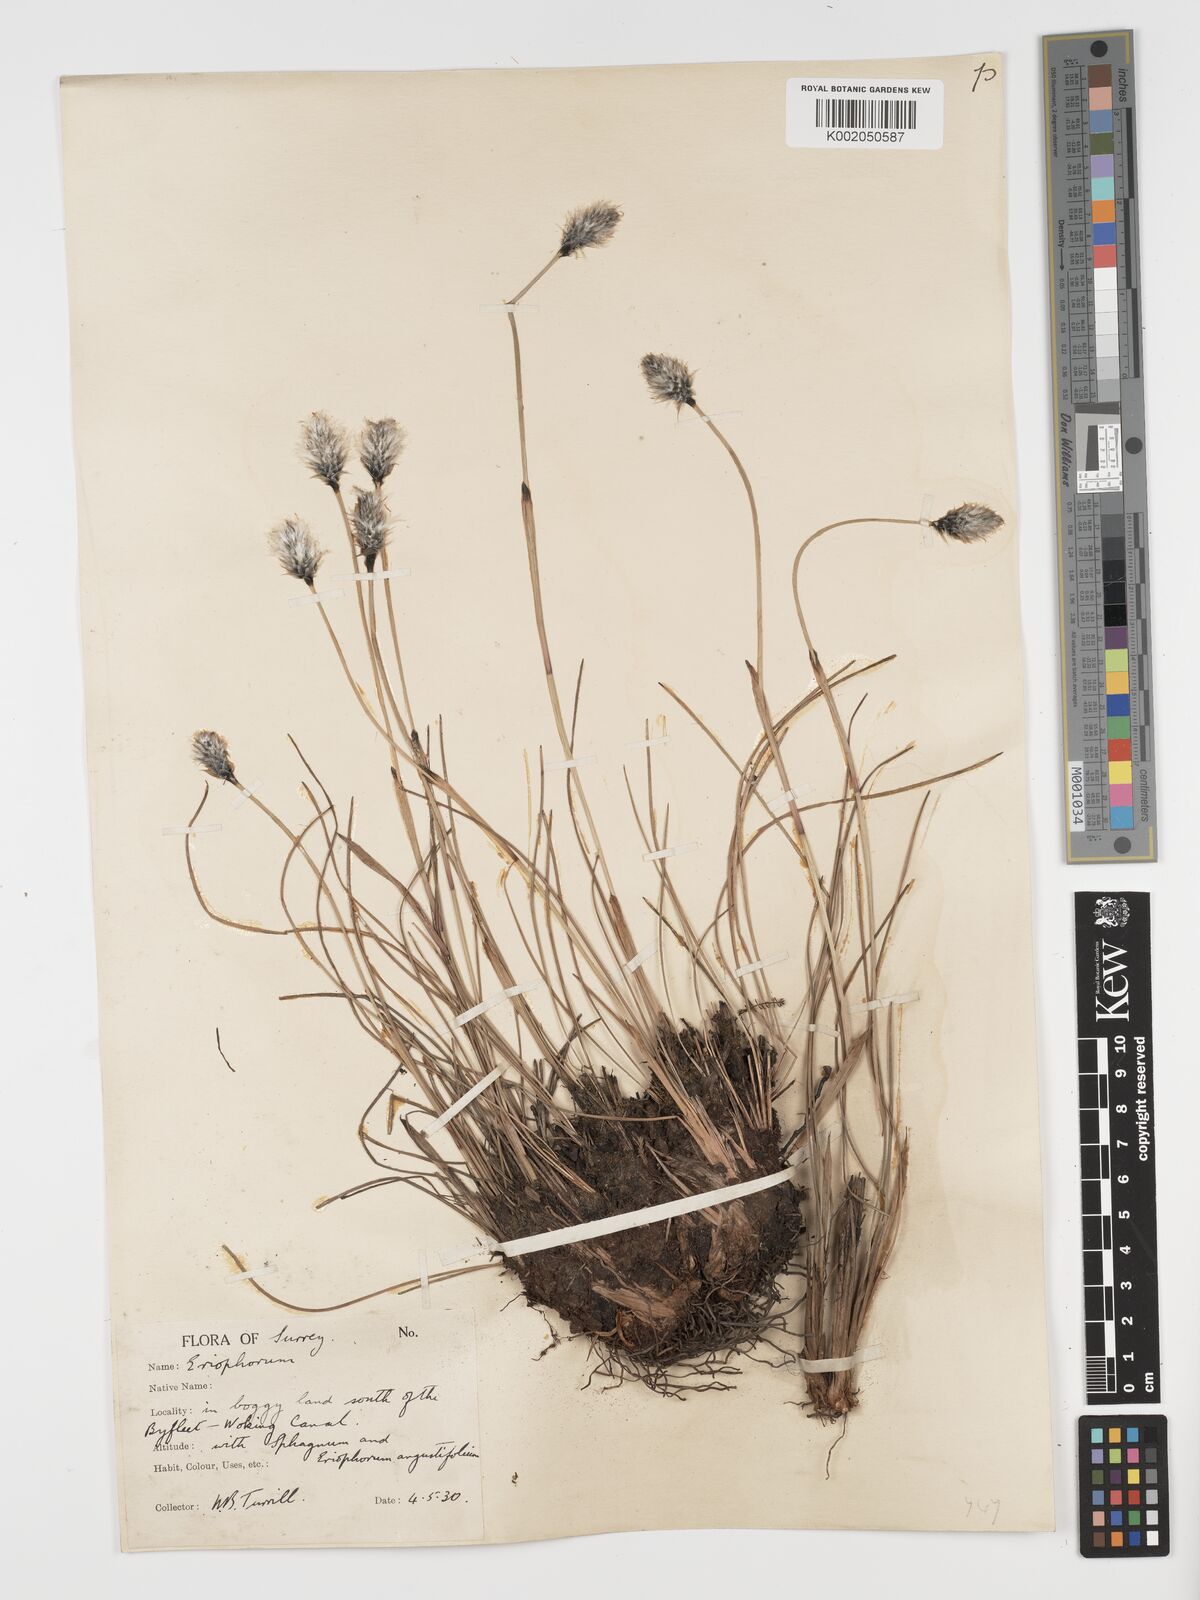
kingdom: Plantae
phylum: Tracheophyta
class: Liliopsida
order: Poales
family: Cyperaceae
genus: Eriophorum
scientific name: Eriophorum vaginatum
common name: Hare's-tail cottongrass
